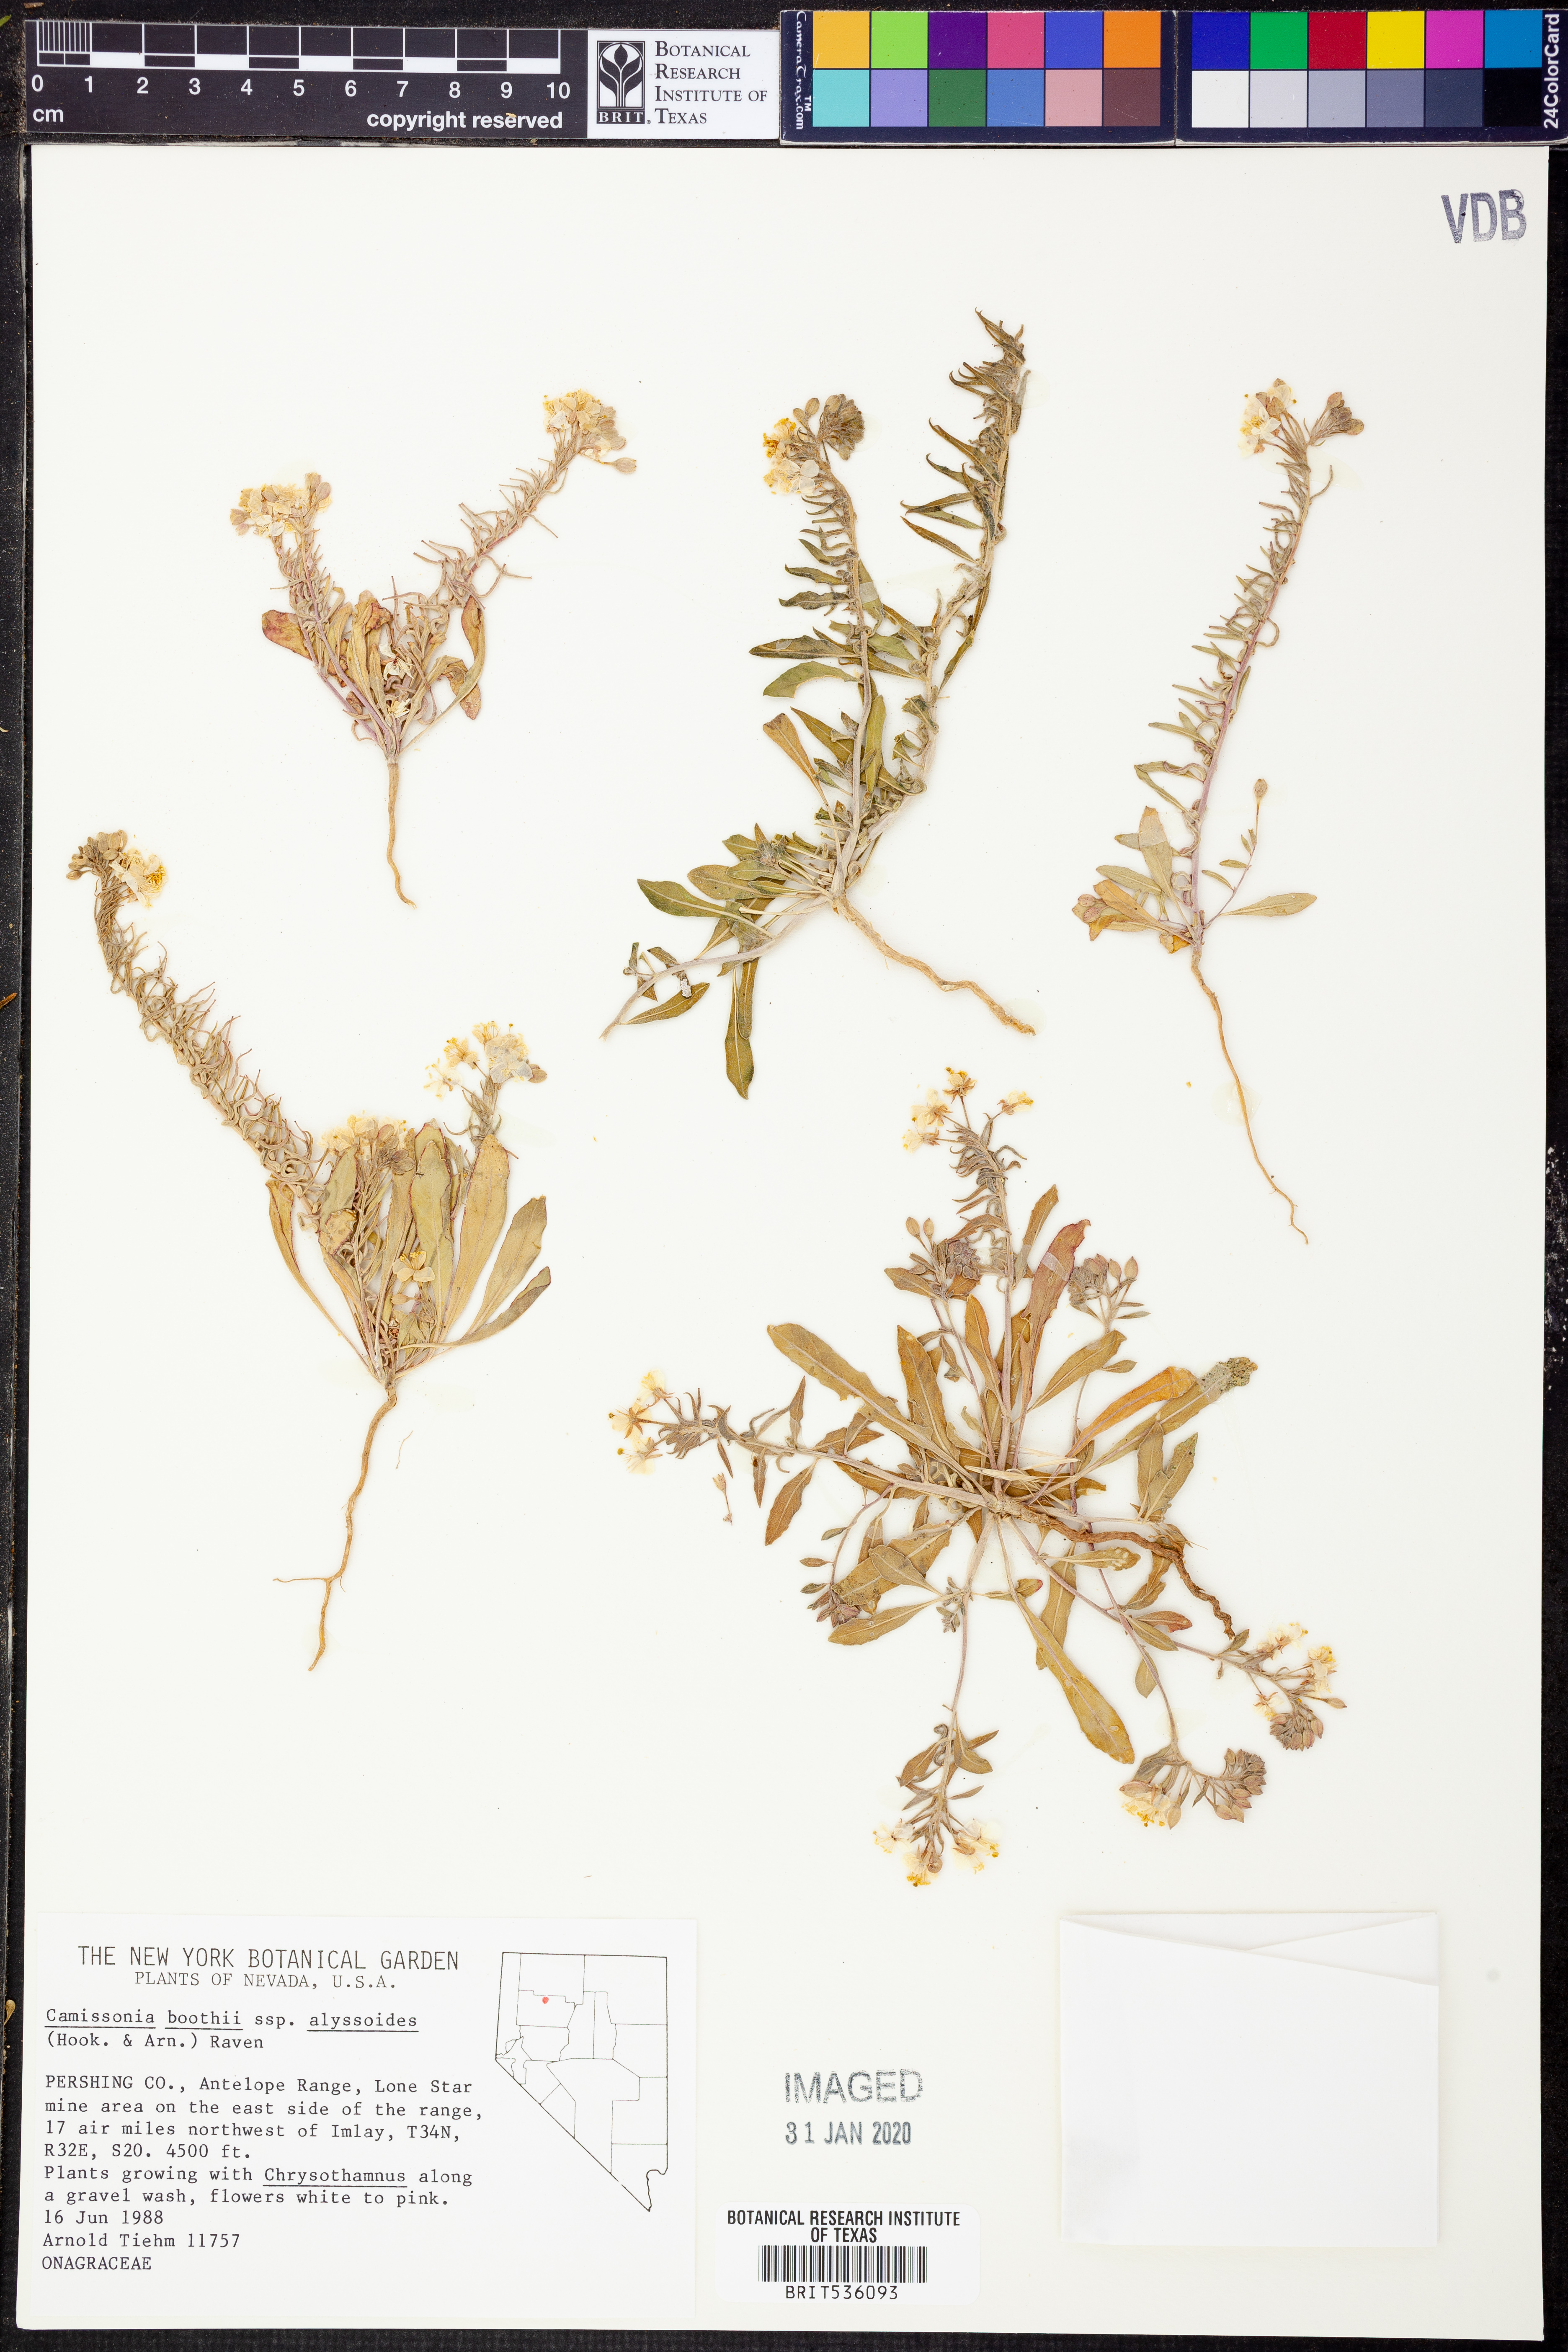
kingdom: Plantae
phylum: Tracheophyta
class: Magnoliopsida
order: Myrtales
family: Onagraceae
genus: Eremothera
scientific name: Eremothera boothii
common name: Booth's evening primrose
